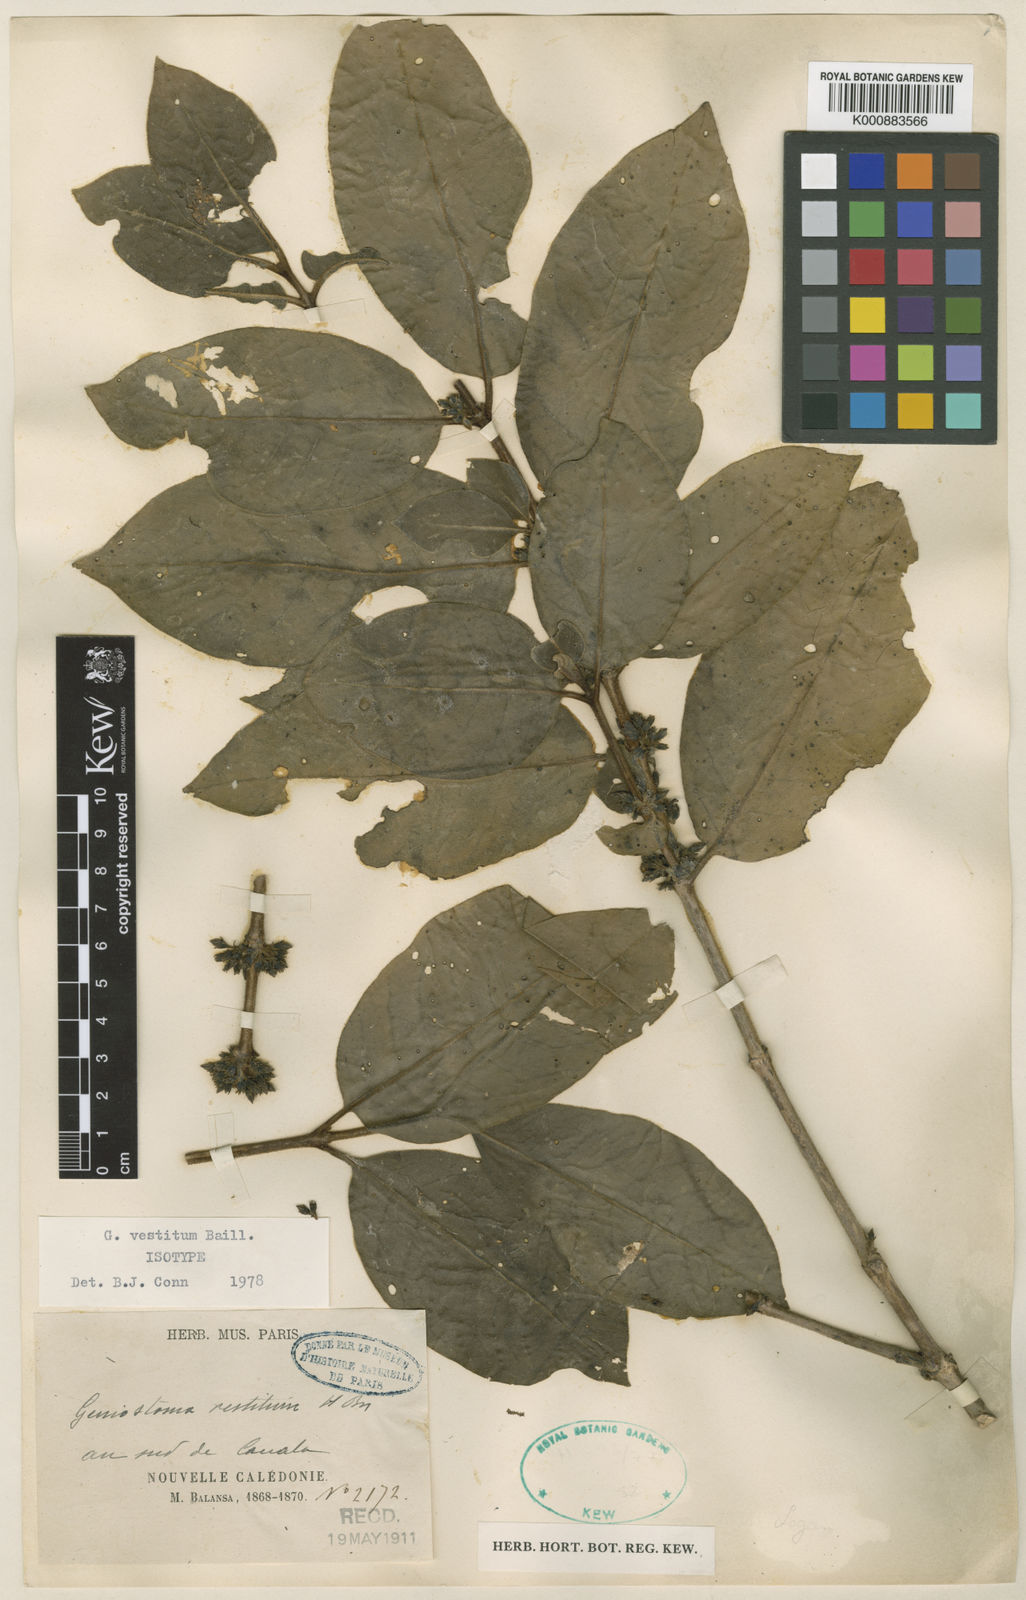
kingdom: Plantae
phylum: Tracheophyta
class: Magnoliopsida
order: Gentianales
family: Loganiaceae
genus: Geniostoma
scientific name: Geniostoma vestitum
